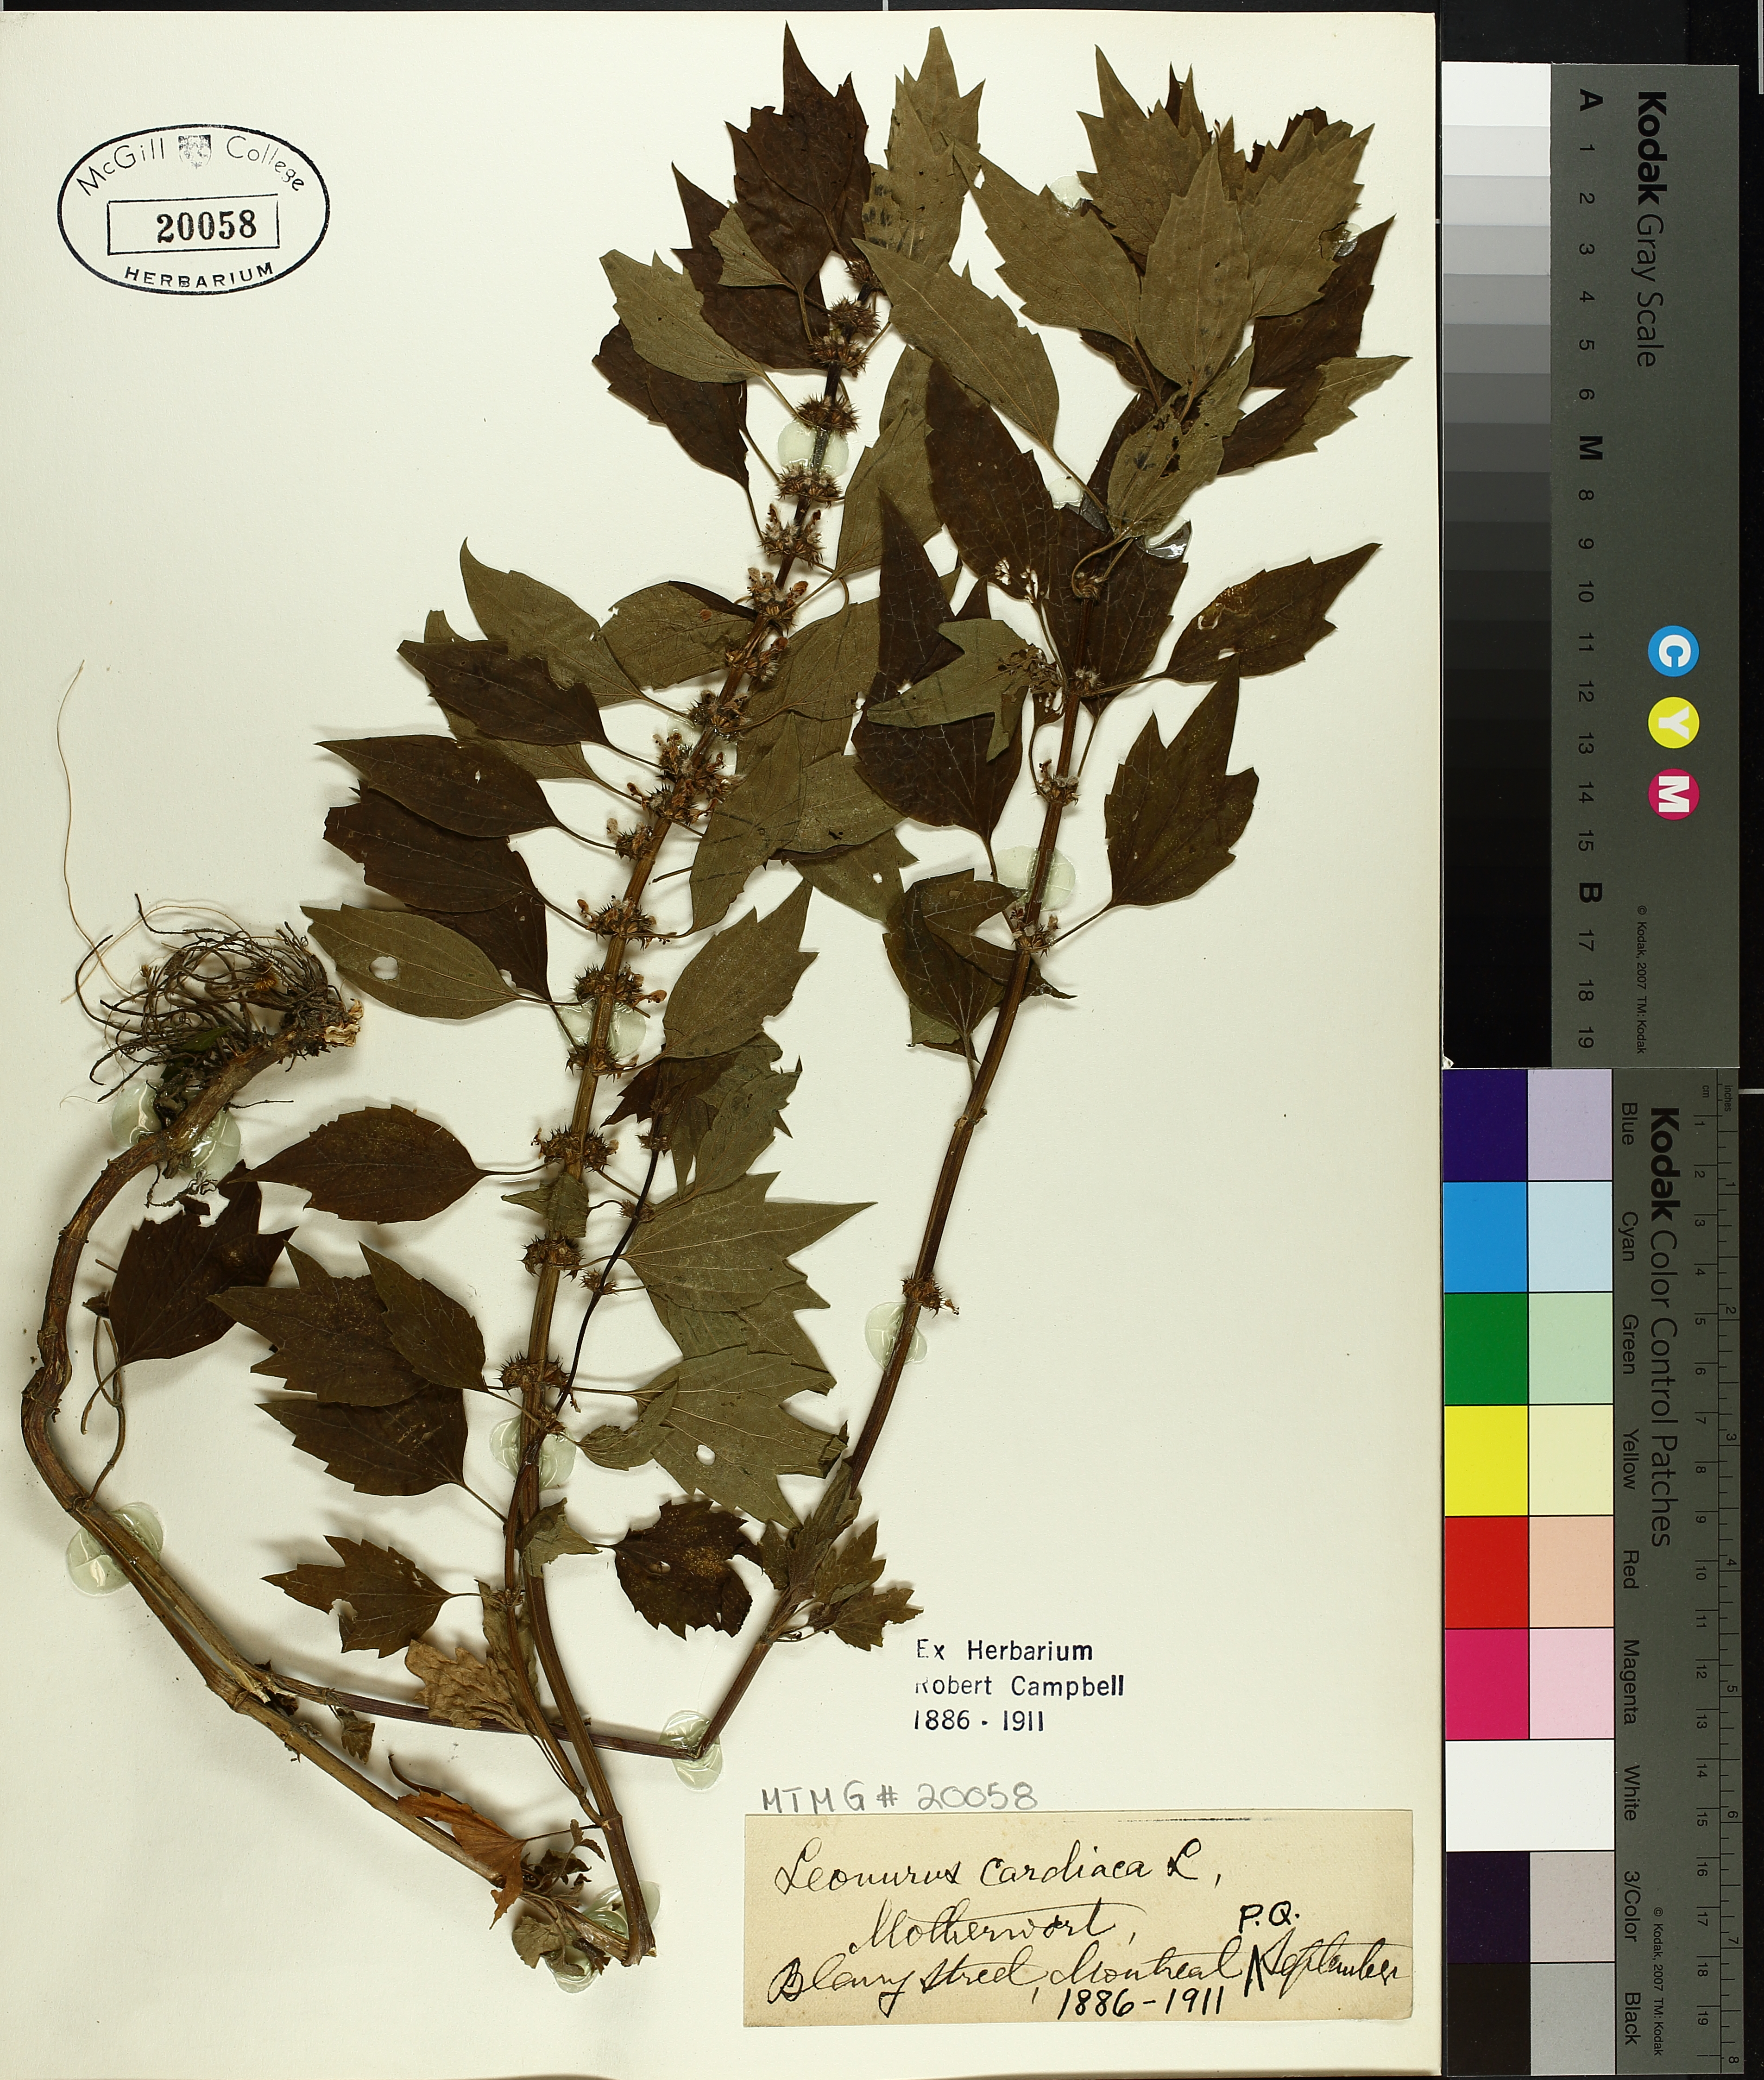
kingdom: Plantae
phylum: Tracheophyta
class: Magnoliopsida
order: Lamiales
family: Lamiaceae
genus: Leonurus
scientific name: Leonurus cardiaca
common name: Motherwort
